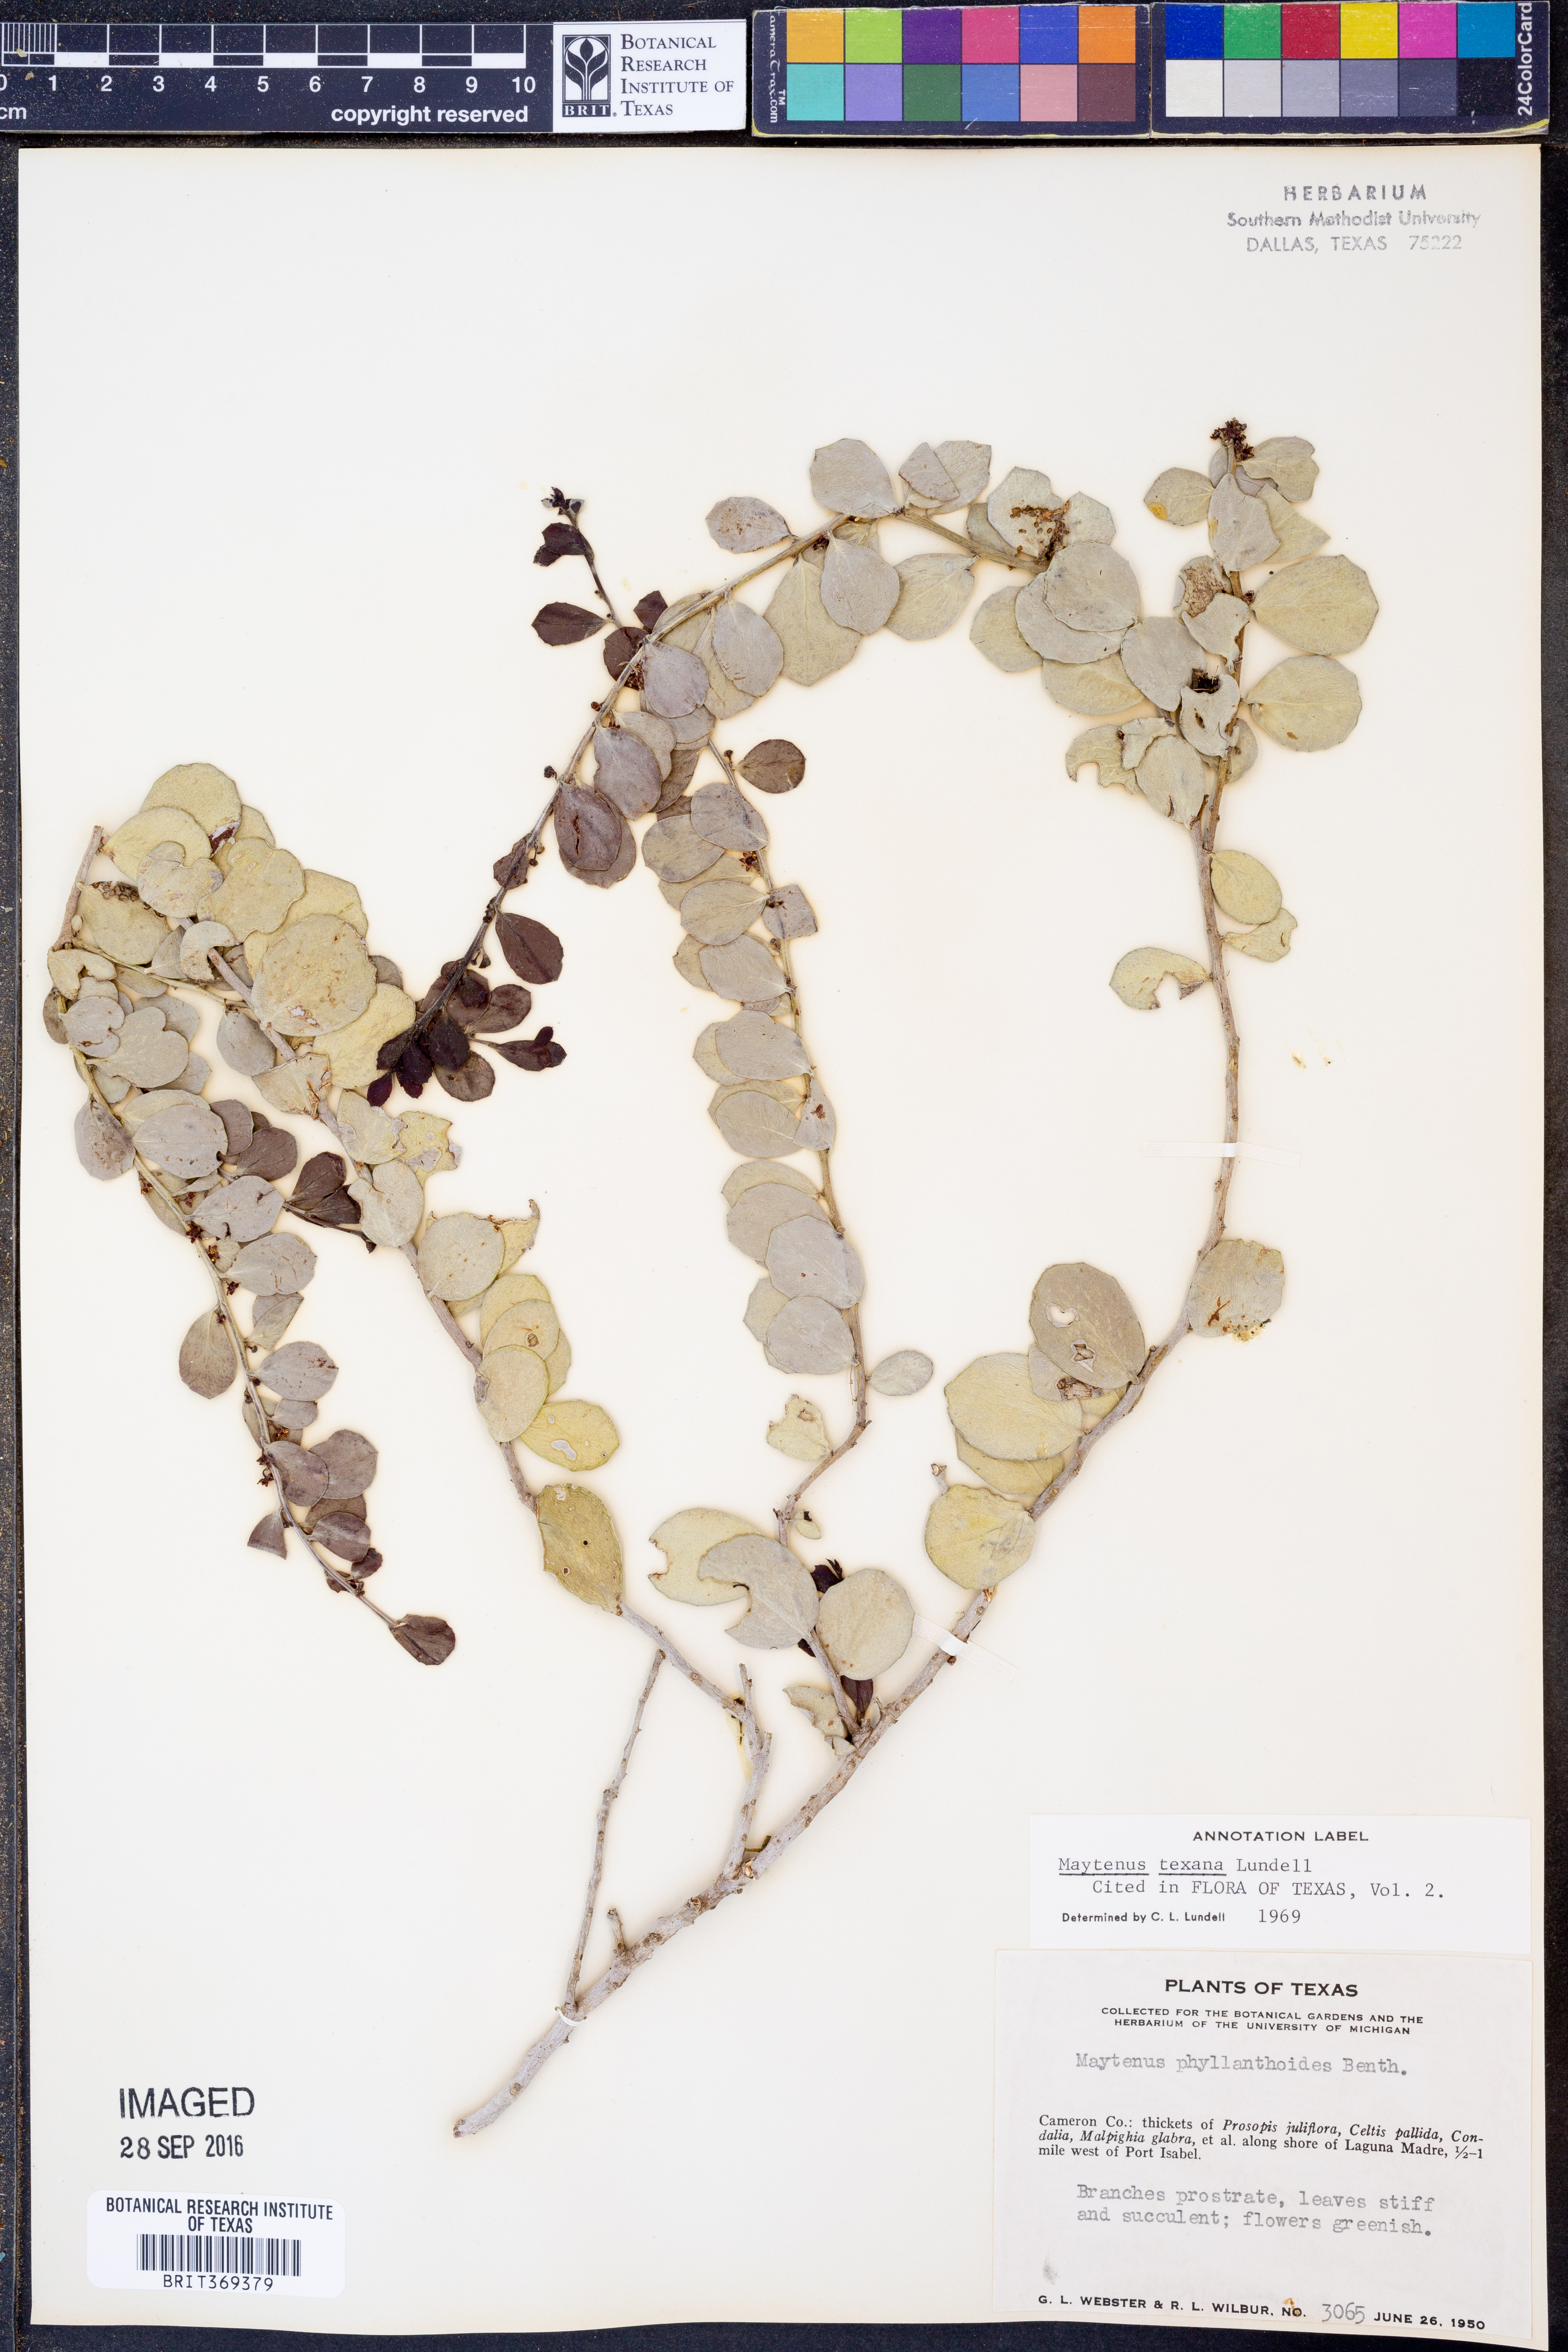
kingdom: Plantae
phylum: Tracheophyta
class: Magnoliopsida
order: Celastrales
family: Celastraceae
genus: Tricerma
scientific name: Tricerma phyllanthoides
